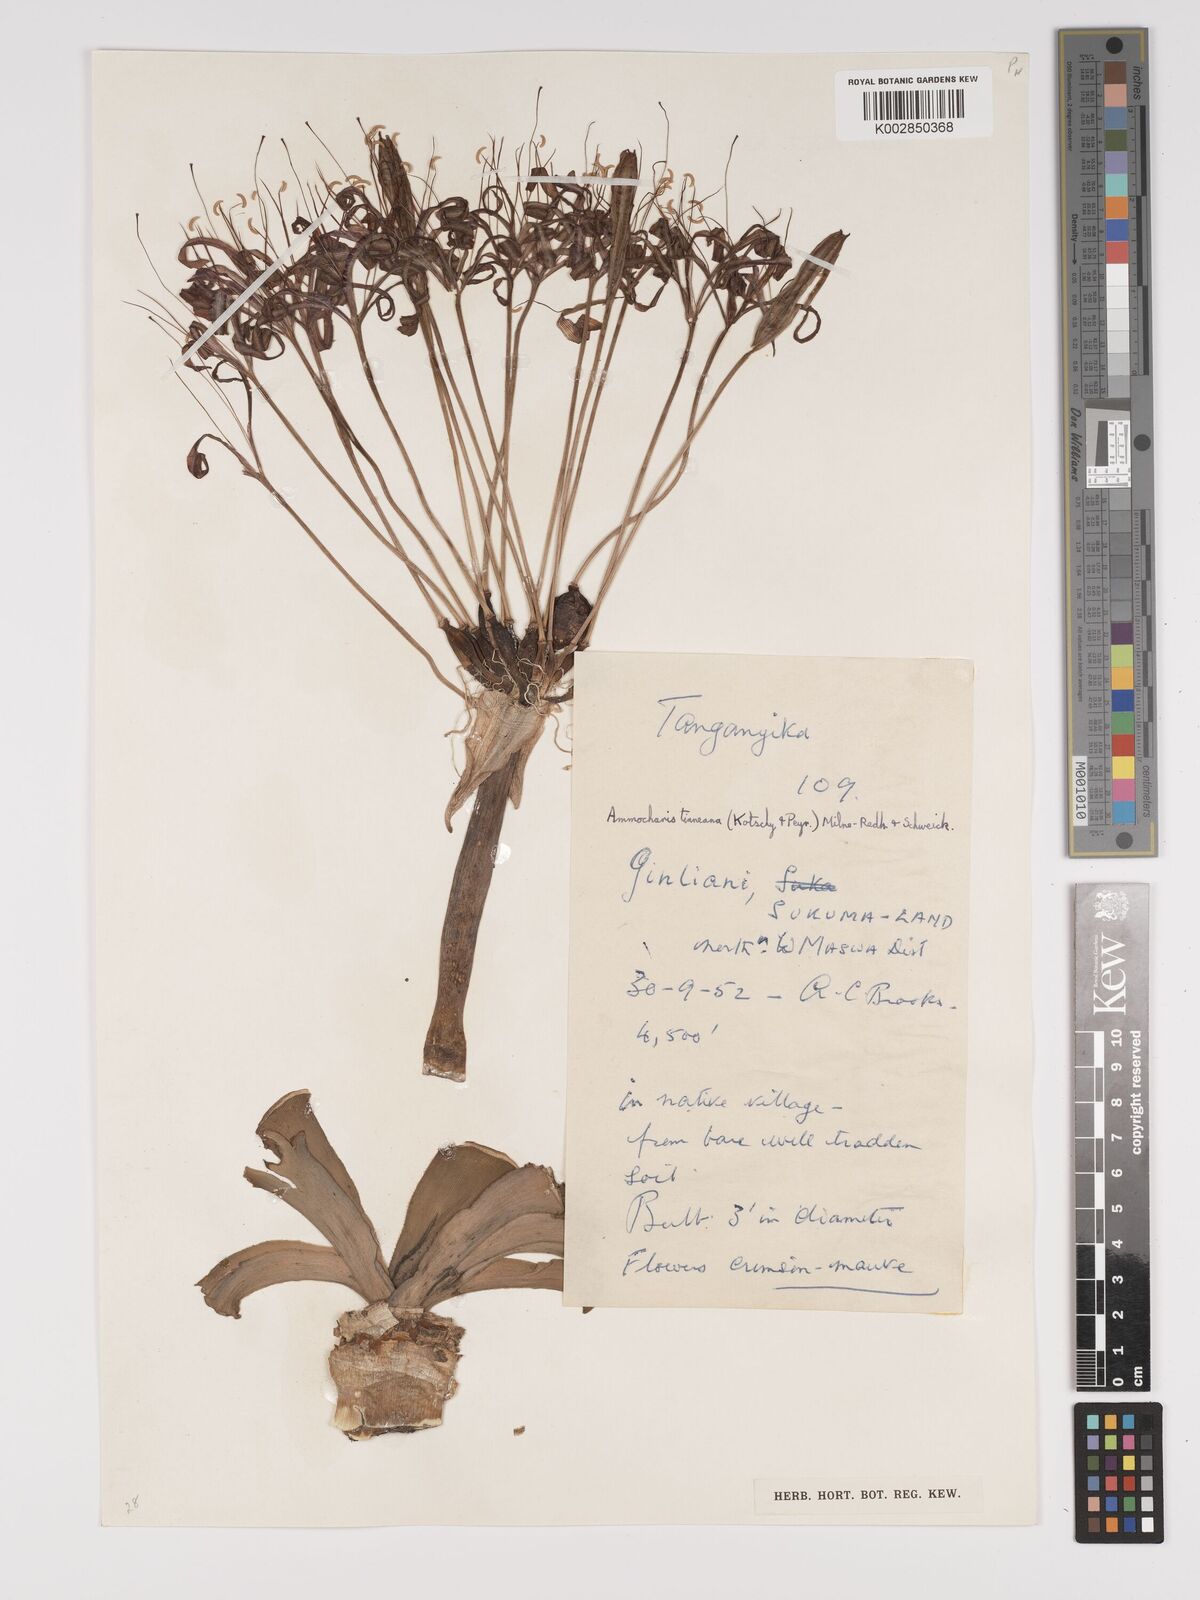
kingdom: Plantae
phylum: Tracheophyta
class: Liliopsida
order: Asparagales
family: Amaryllidaceae
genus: Ammocharis
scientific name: Ammocharis tinneana
